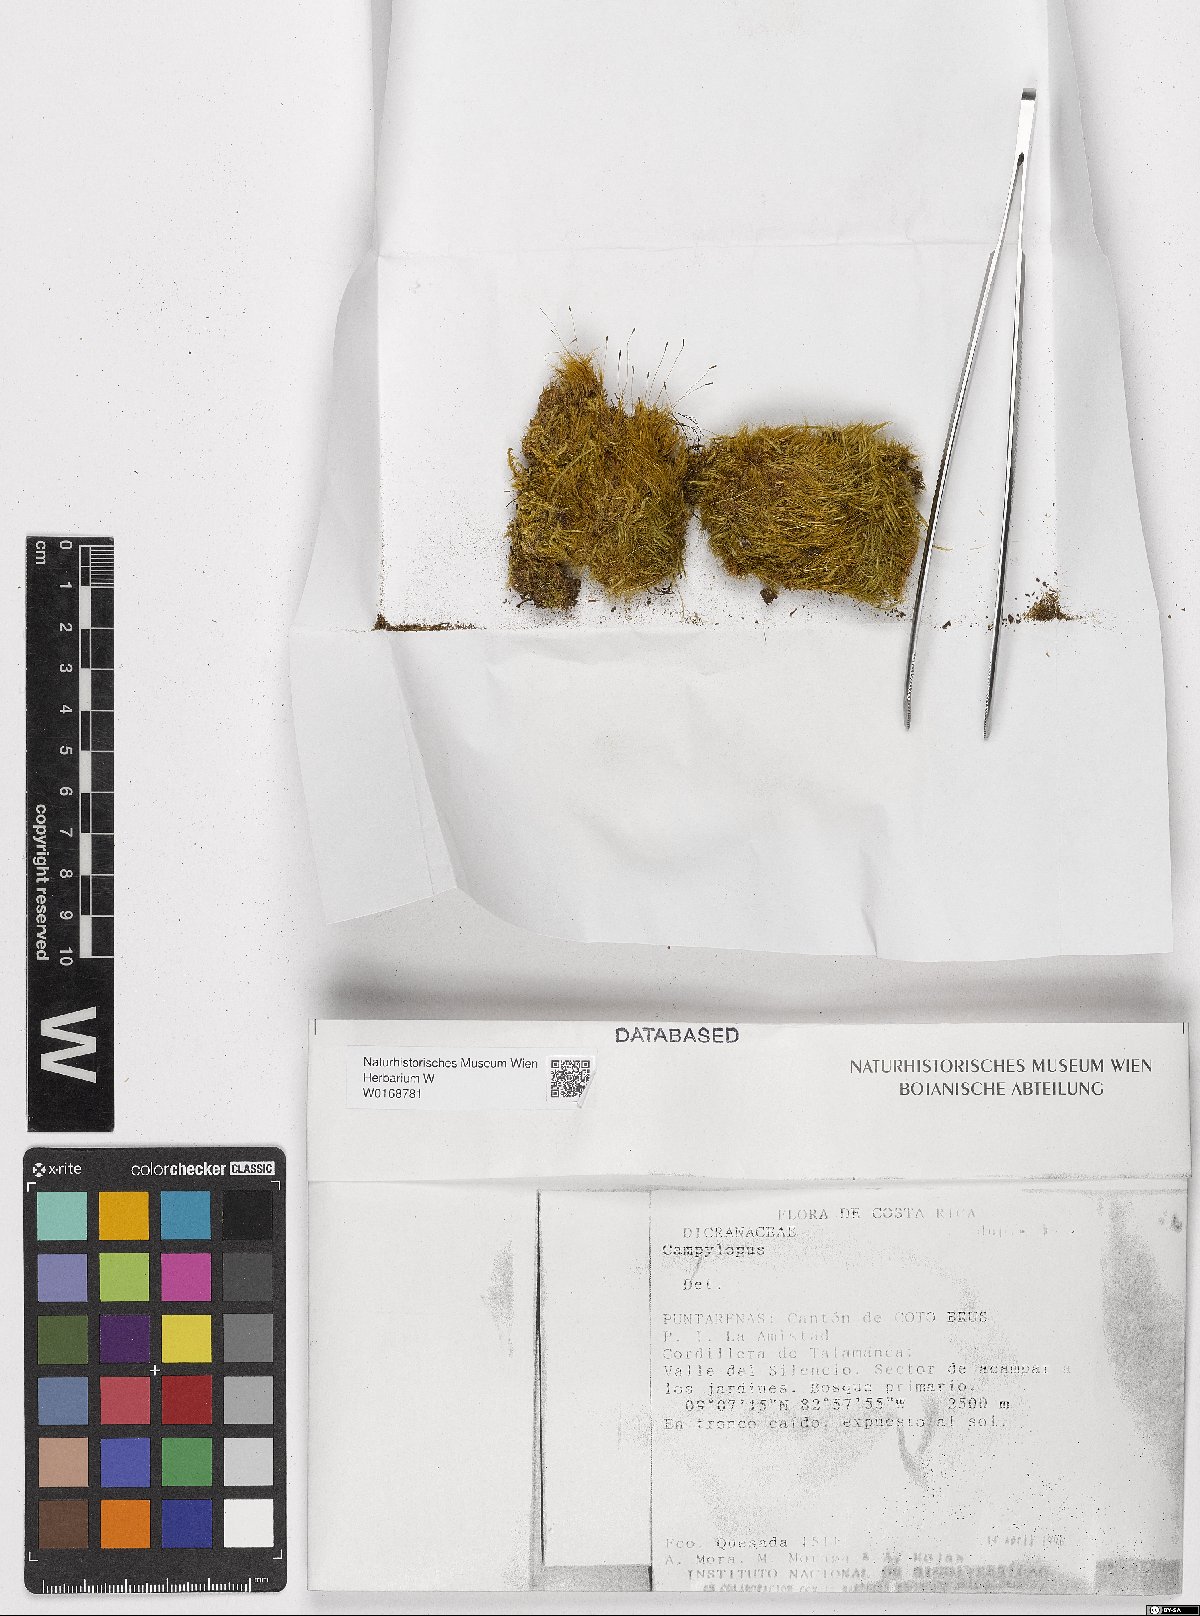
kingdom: Plantae
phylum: Bryophyta
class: Bryopsida
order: Dicranales
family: Leucobryaceae
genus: Campylopus
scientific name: Campylopus
